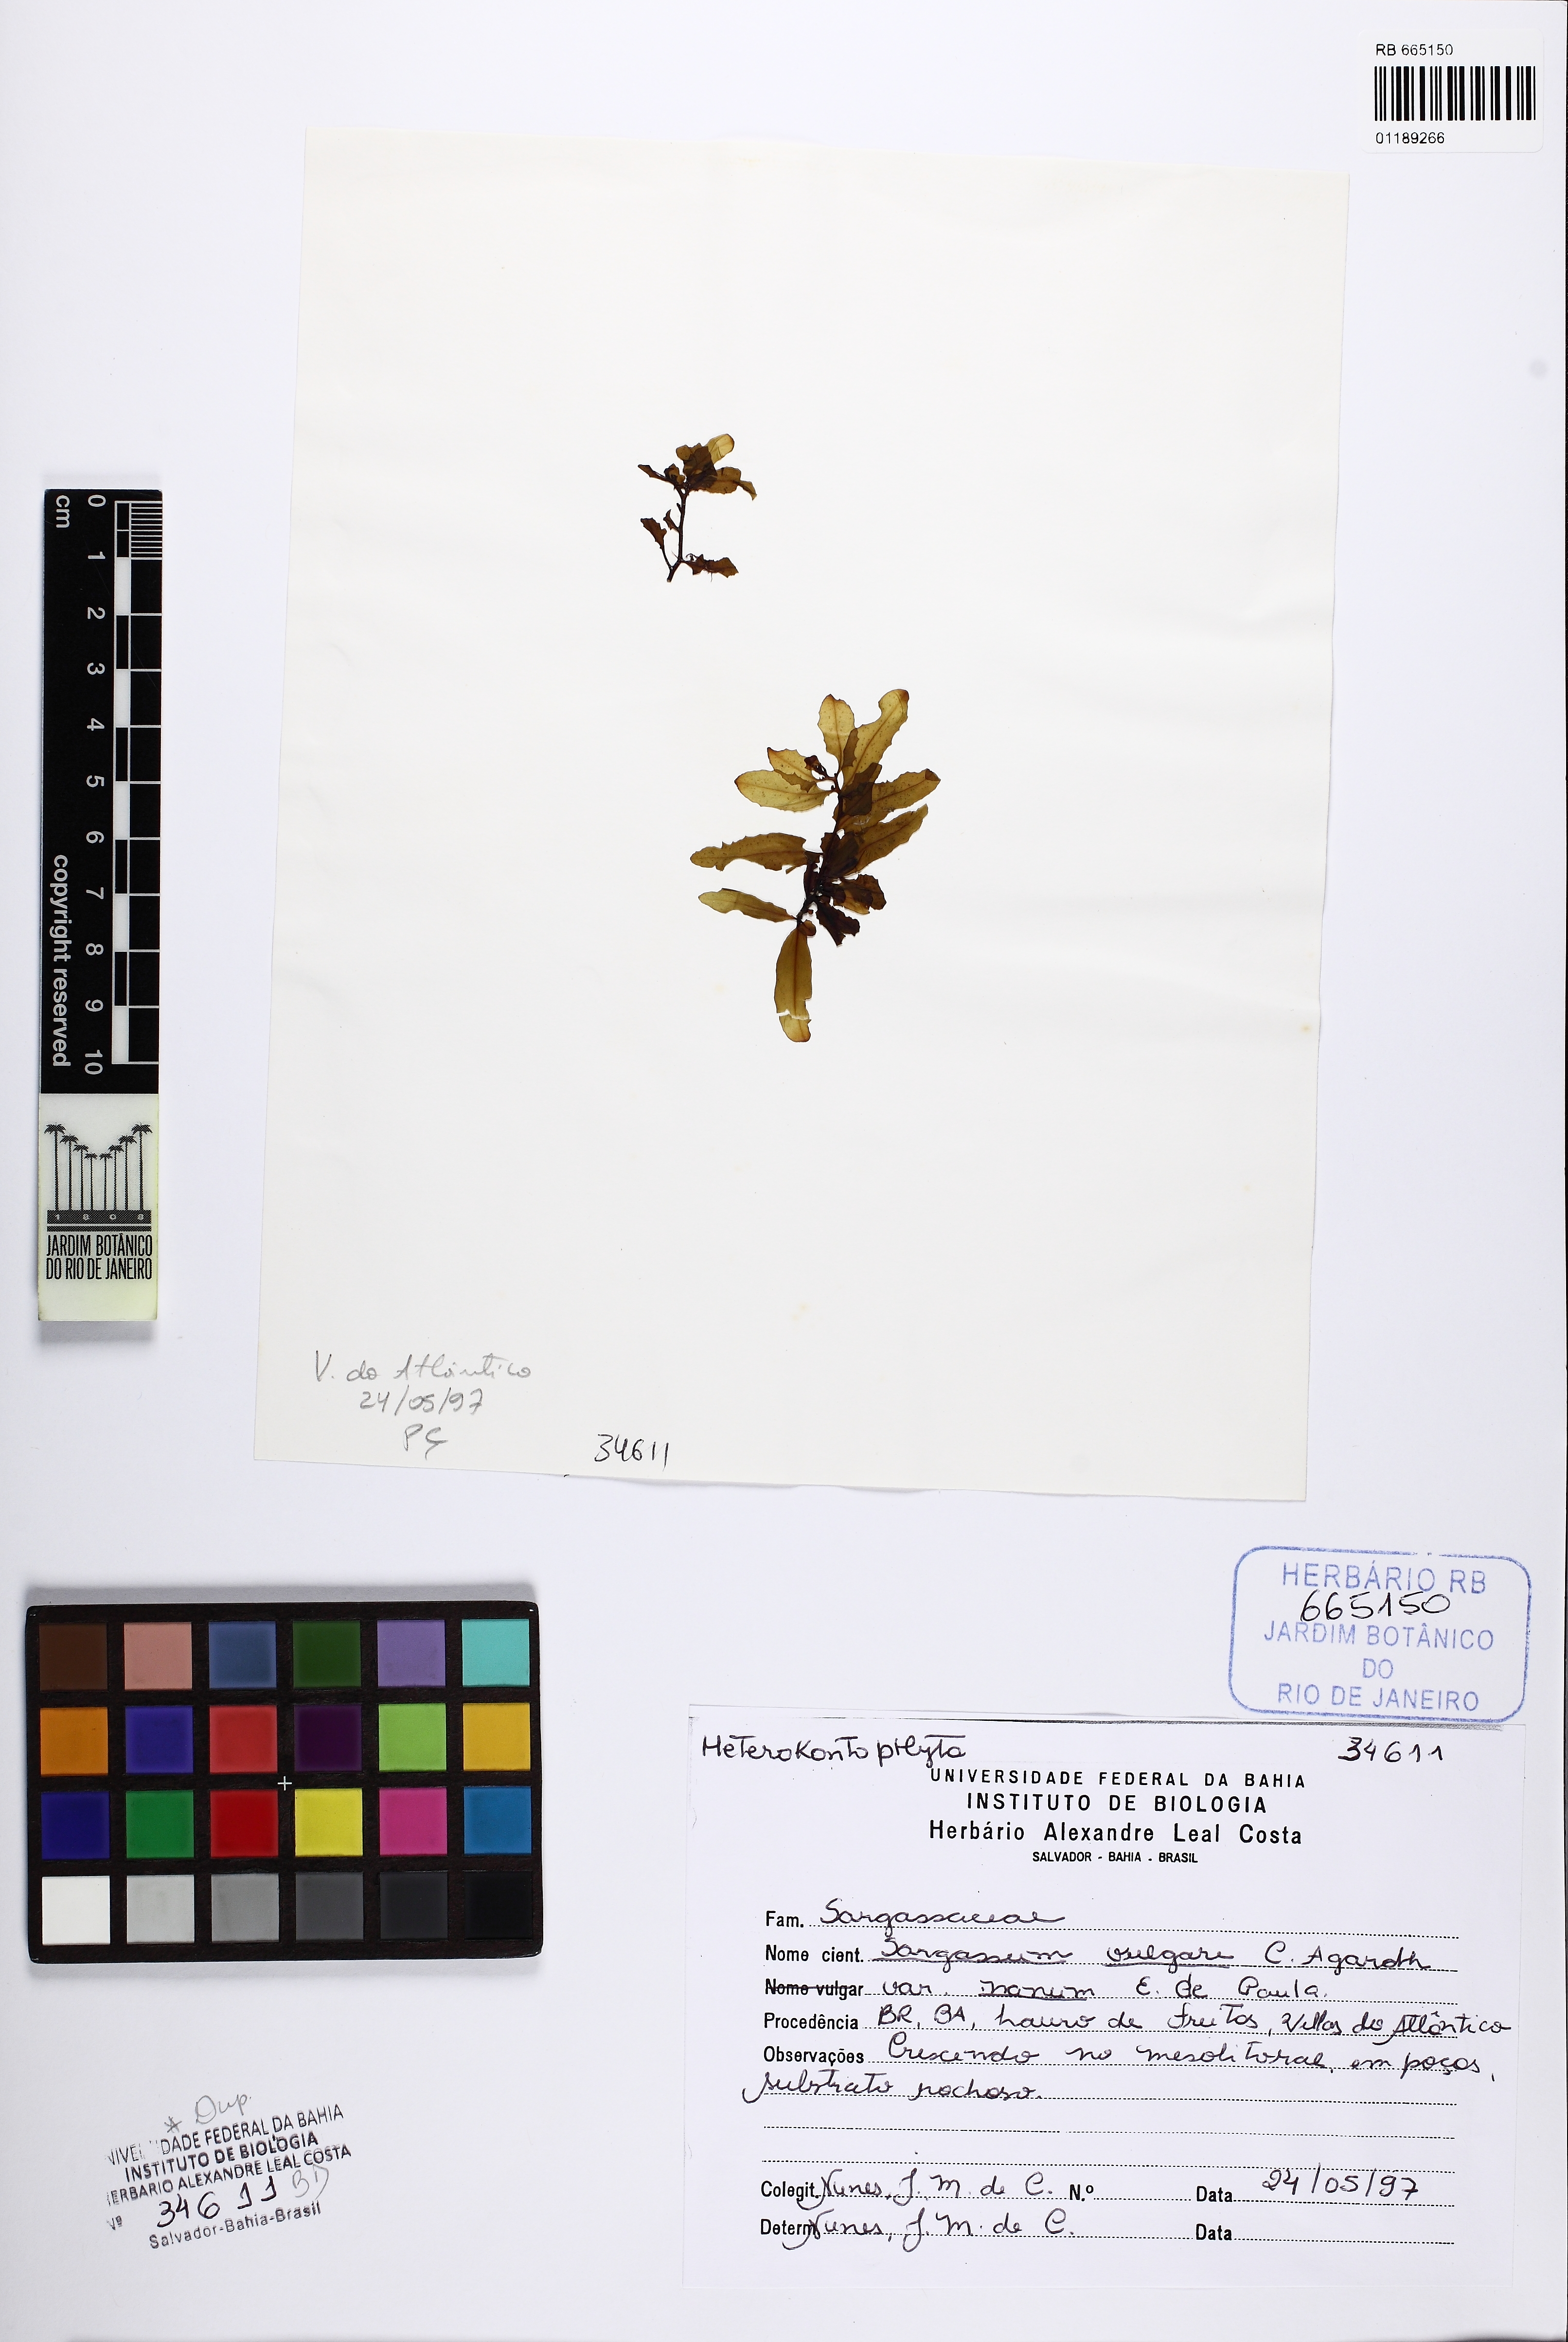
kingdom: Chromista
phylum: Ochrophyta
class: Phaeophyceae
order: Fucales
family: Sargassaceae
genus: Sargassum
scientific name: Sargassum vulgare
